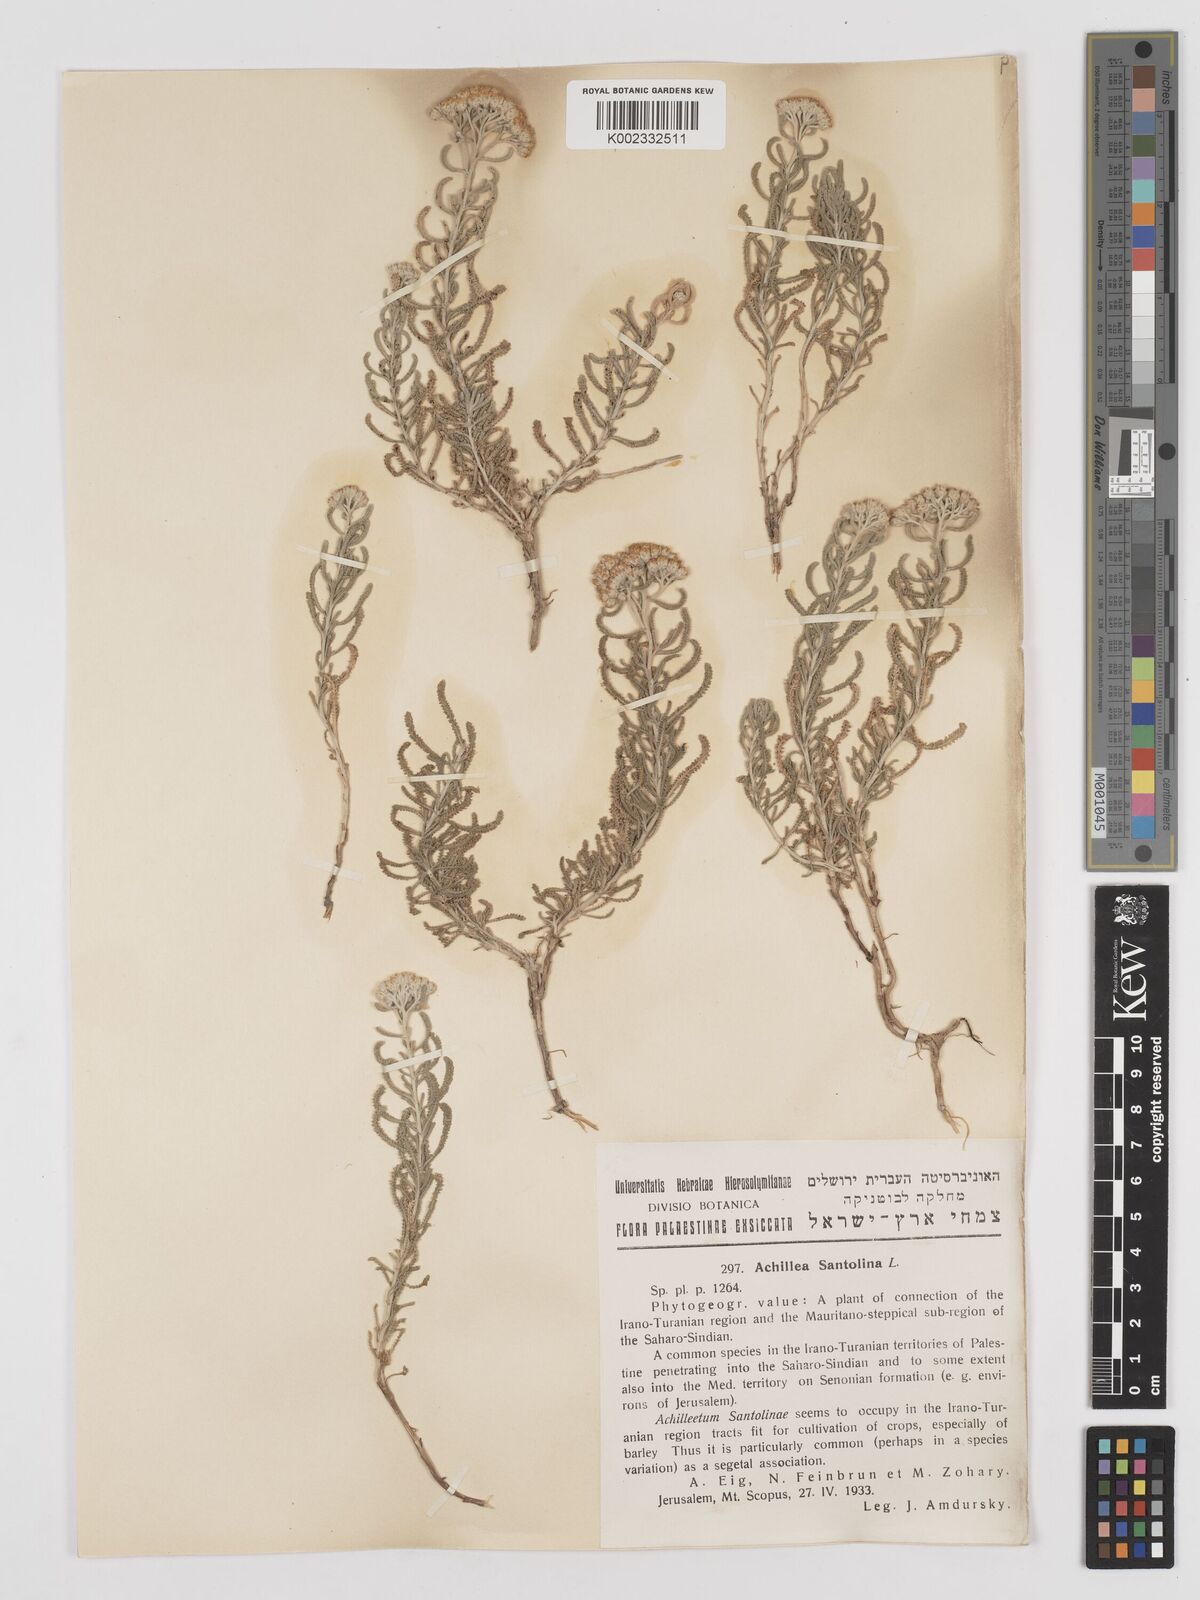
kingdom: Plantae
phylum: Tracheophyta
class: Magnoliopsida
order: Asterales
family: Asteraceae
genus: Achillea
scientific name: Achillea tenuifolia
